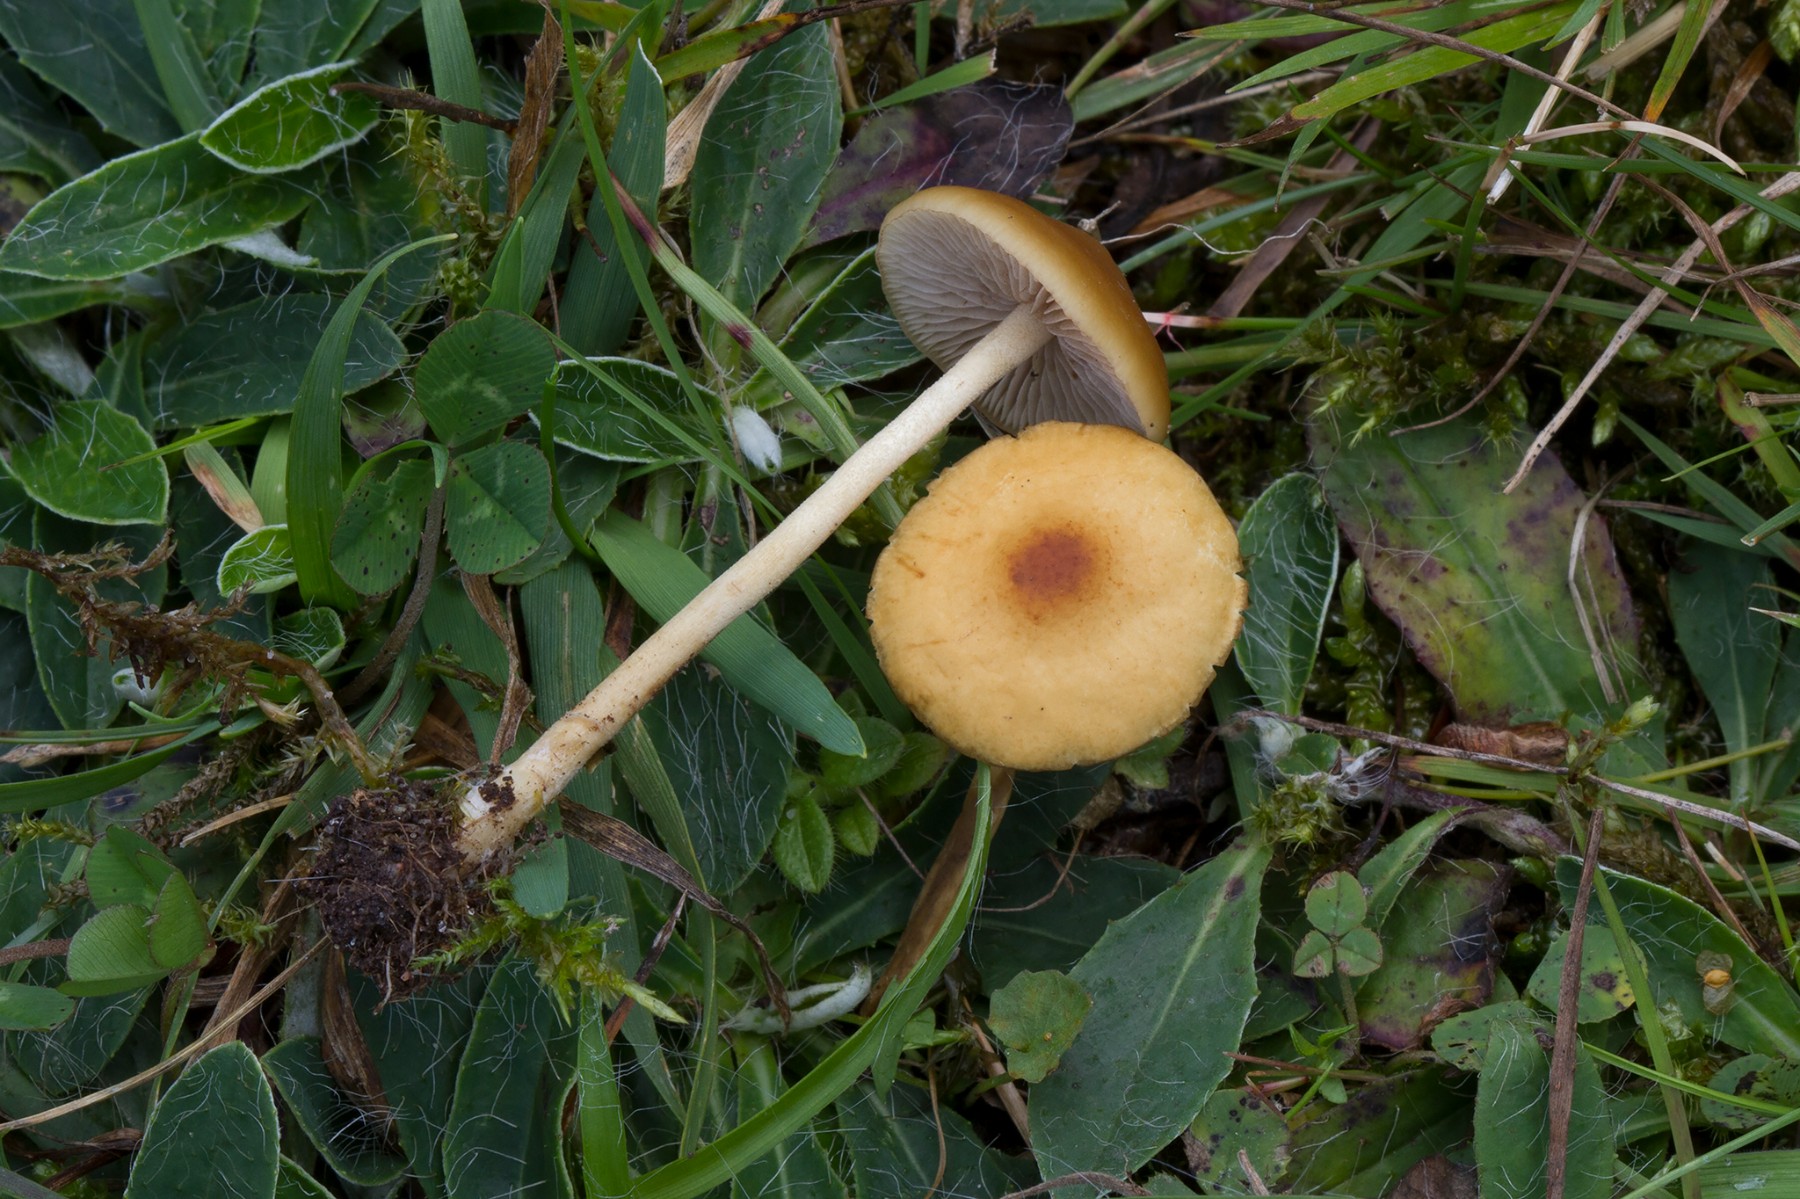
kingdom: Fungi
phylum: Basidiomycota
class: Agaricomycetes
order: Agaricales
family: Strophariaceae
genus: Agrocybe
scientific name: Agrocybe arvalis
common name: rodslående agerhat
